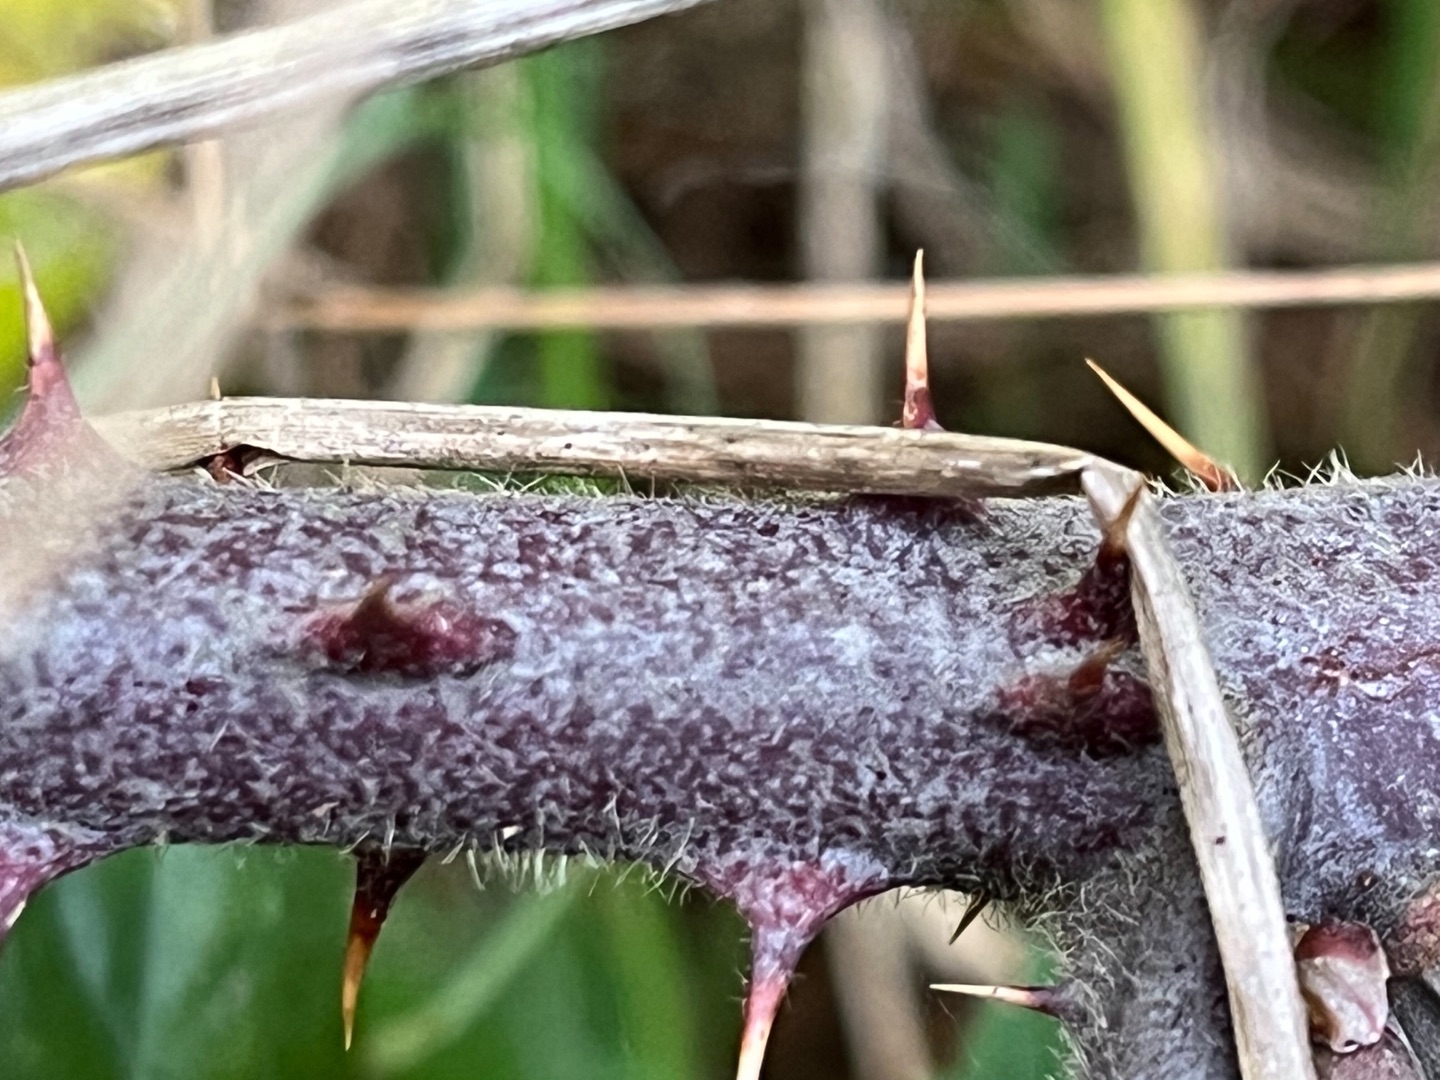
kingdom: Plantae
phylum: Tracheophyta
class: Magnoliopsida
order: Rosales
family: Rosaceae
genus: Rubus
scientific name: Rubus vestitus
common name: Rundbladet brombær
